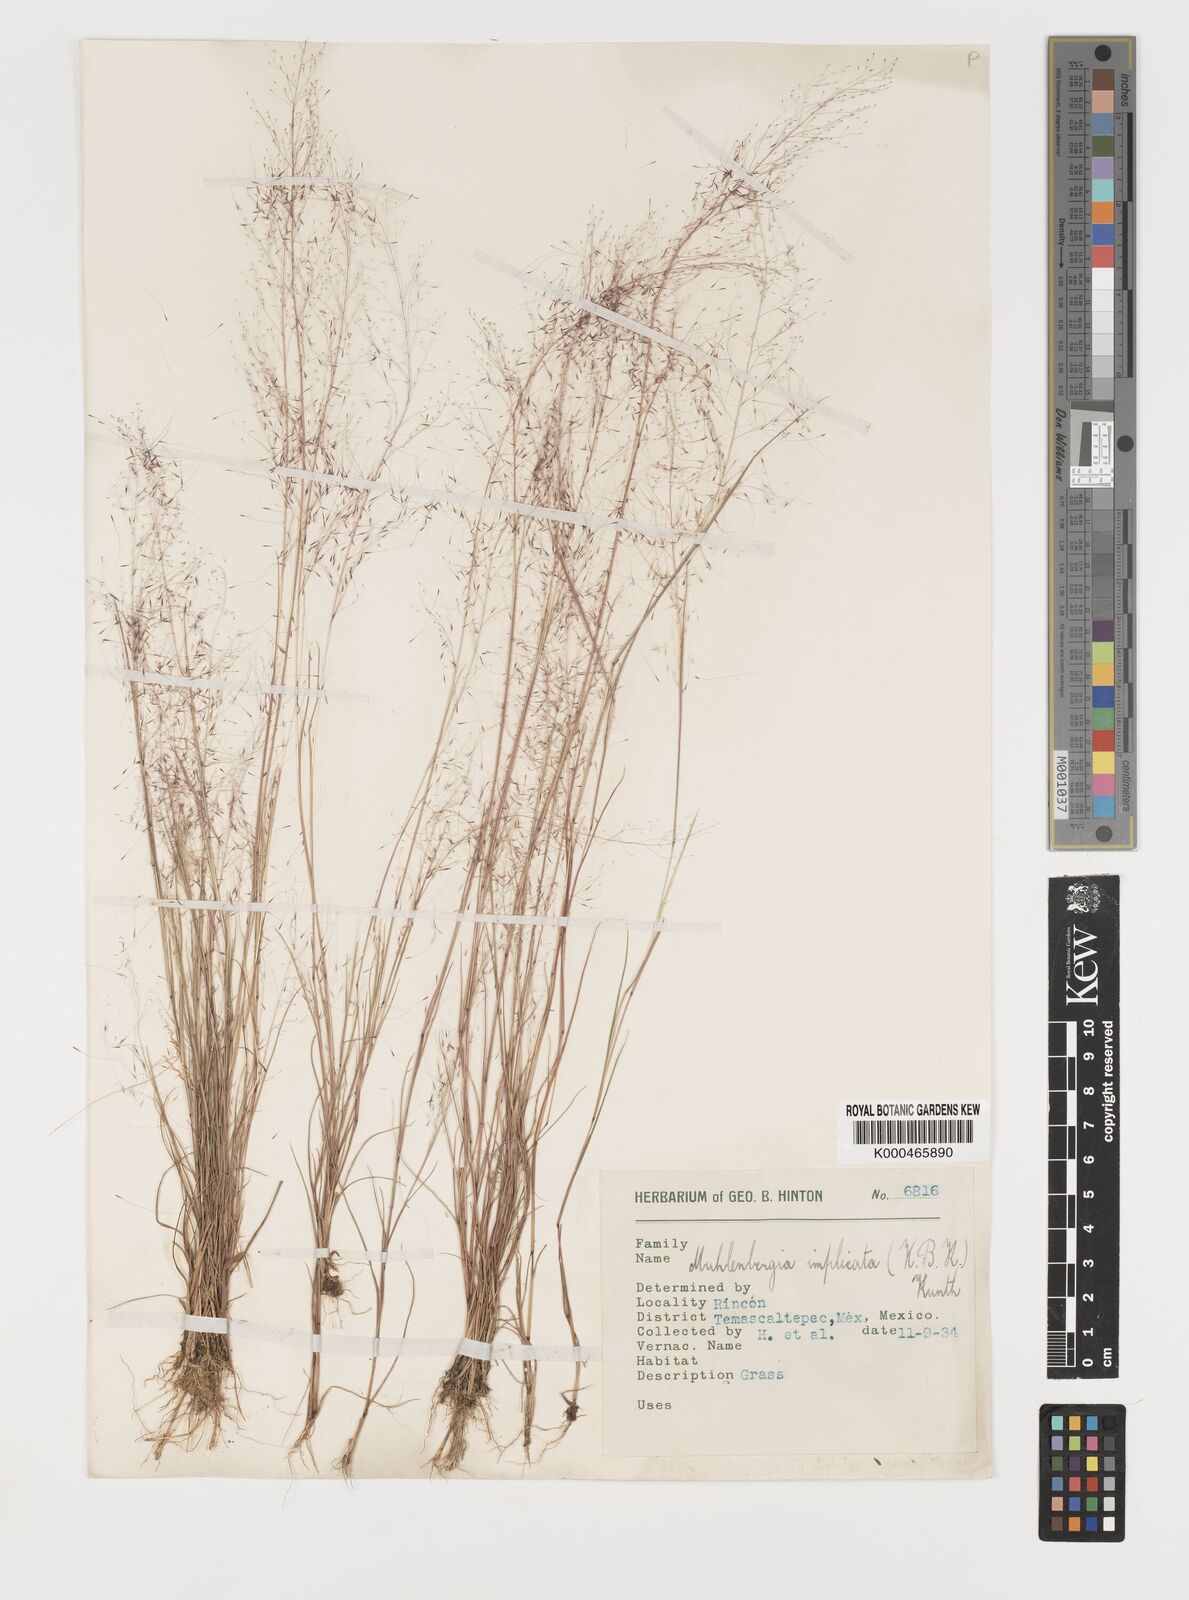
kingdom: Plantae
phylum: Tracheophyta
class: Liliopsida
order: Poales
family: Poaceae
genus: Muhlenbergia
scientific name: Muhlenbergia implicata
